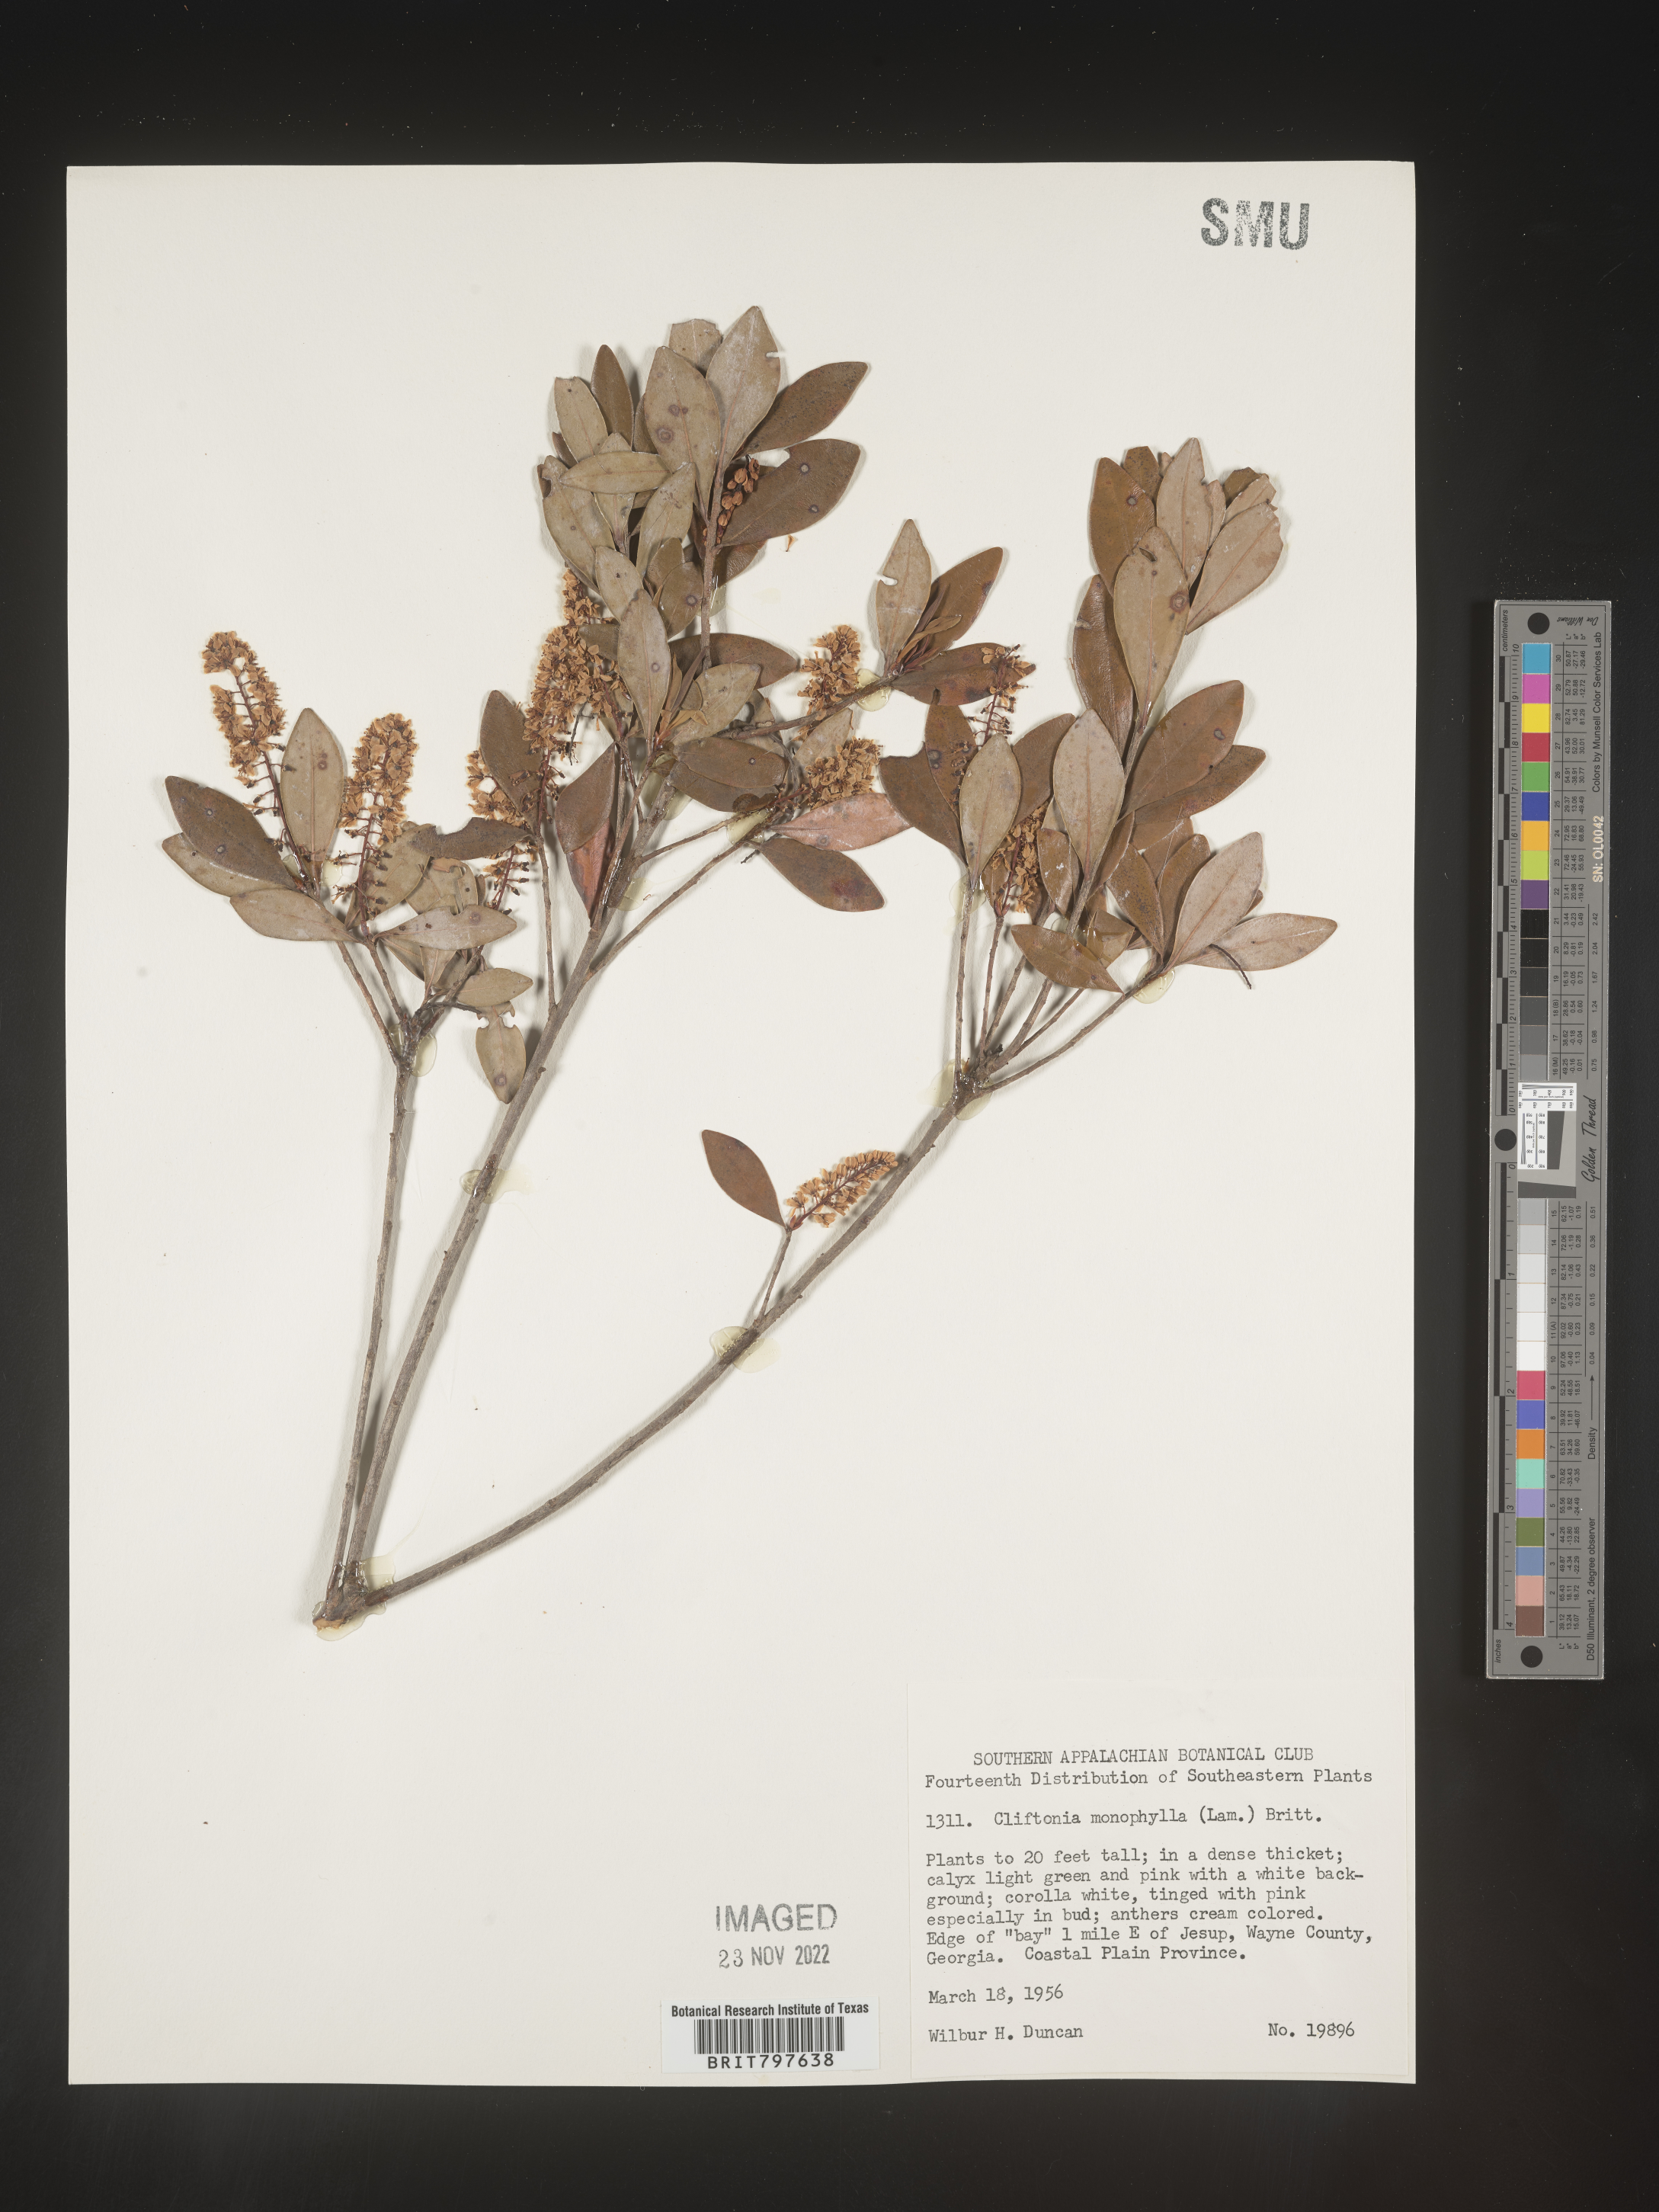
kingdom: Plantae
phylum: Tracheophyta
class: Magnoliopsida
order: Ericales
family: Cyrillaceae
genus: Cliftonia
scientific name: Cliftonia monophylla
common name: Titi
